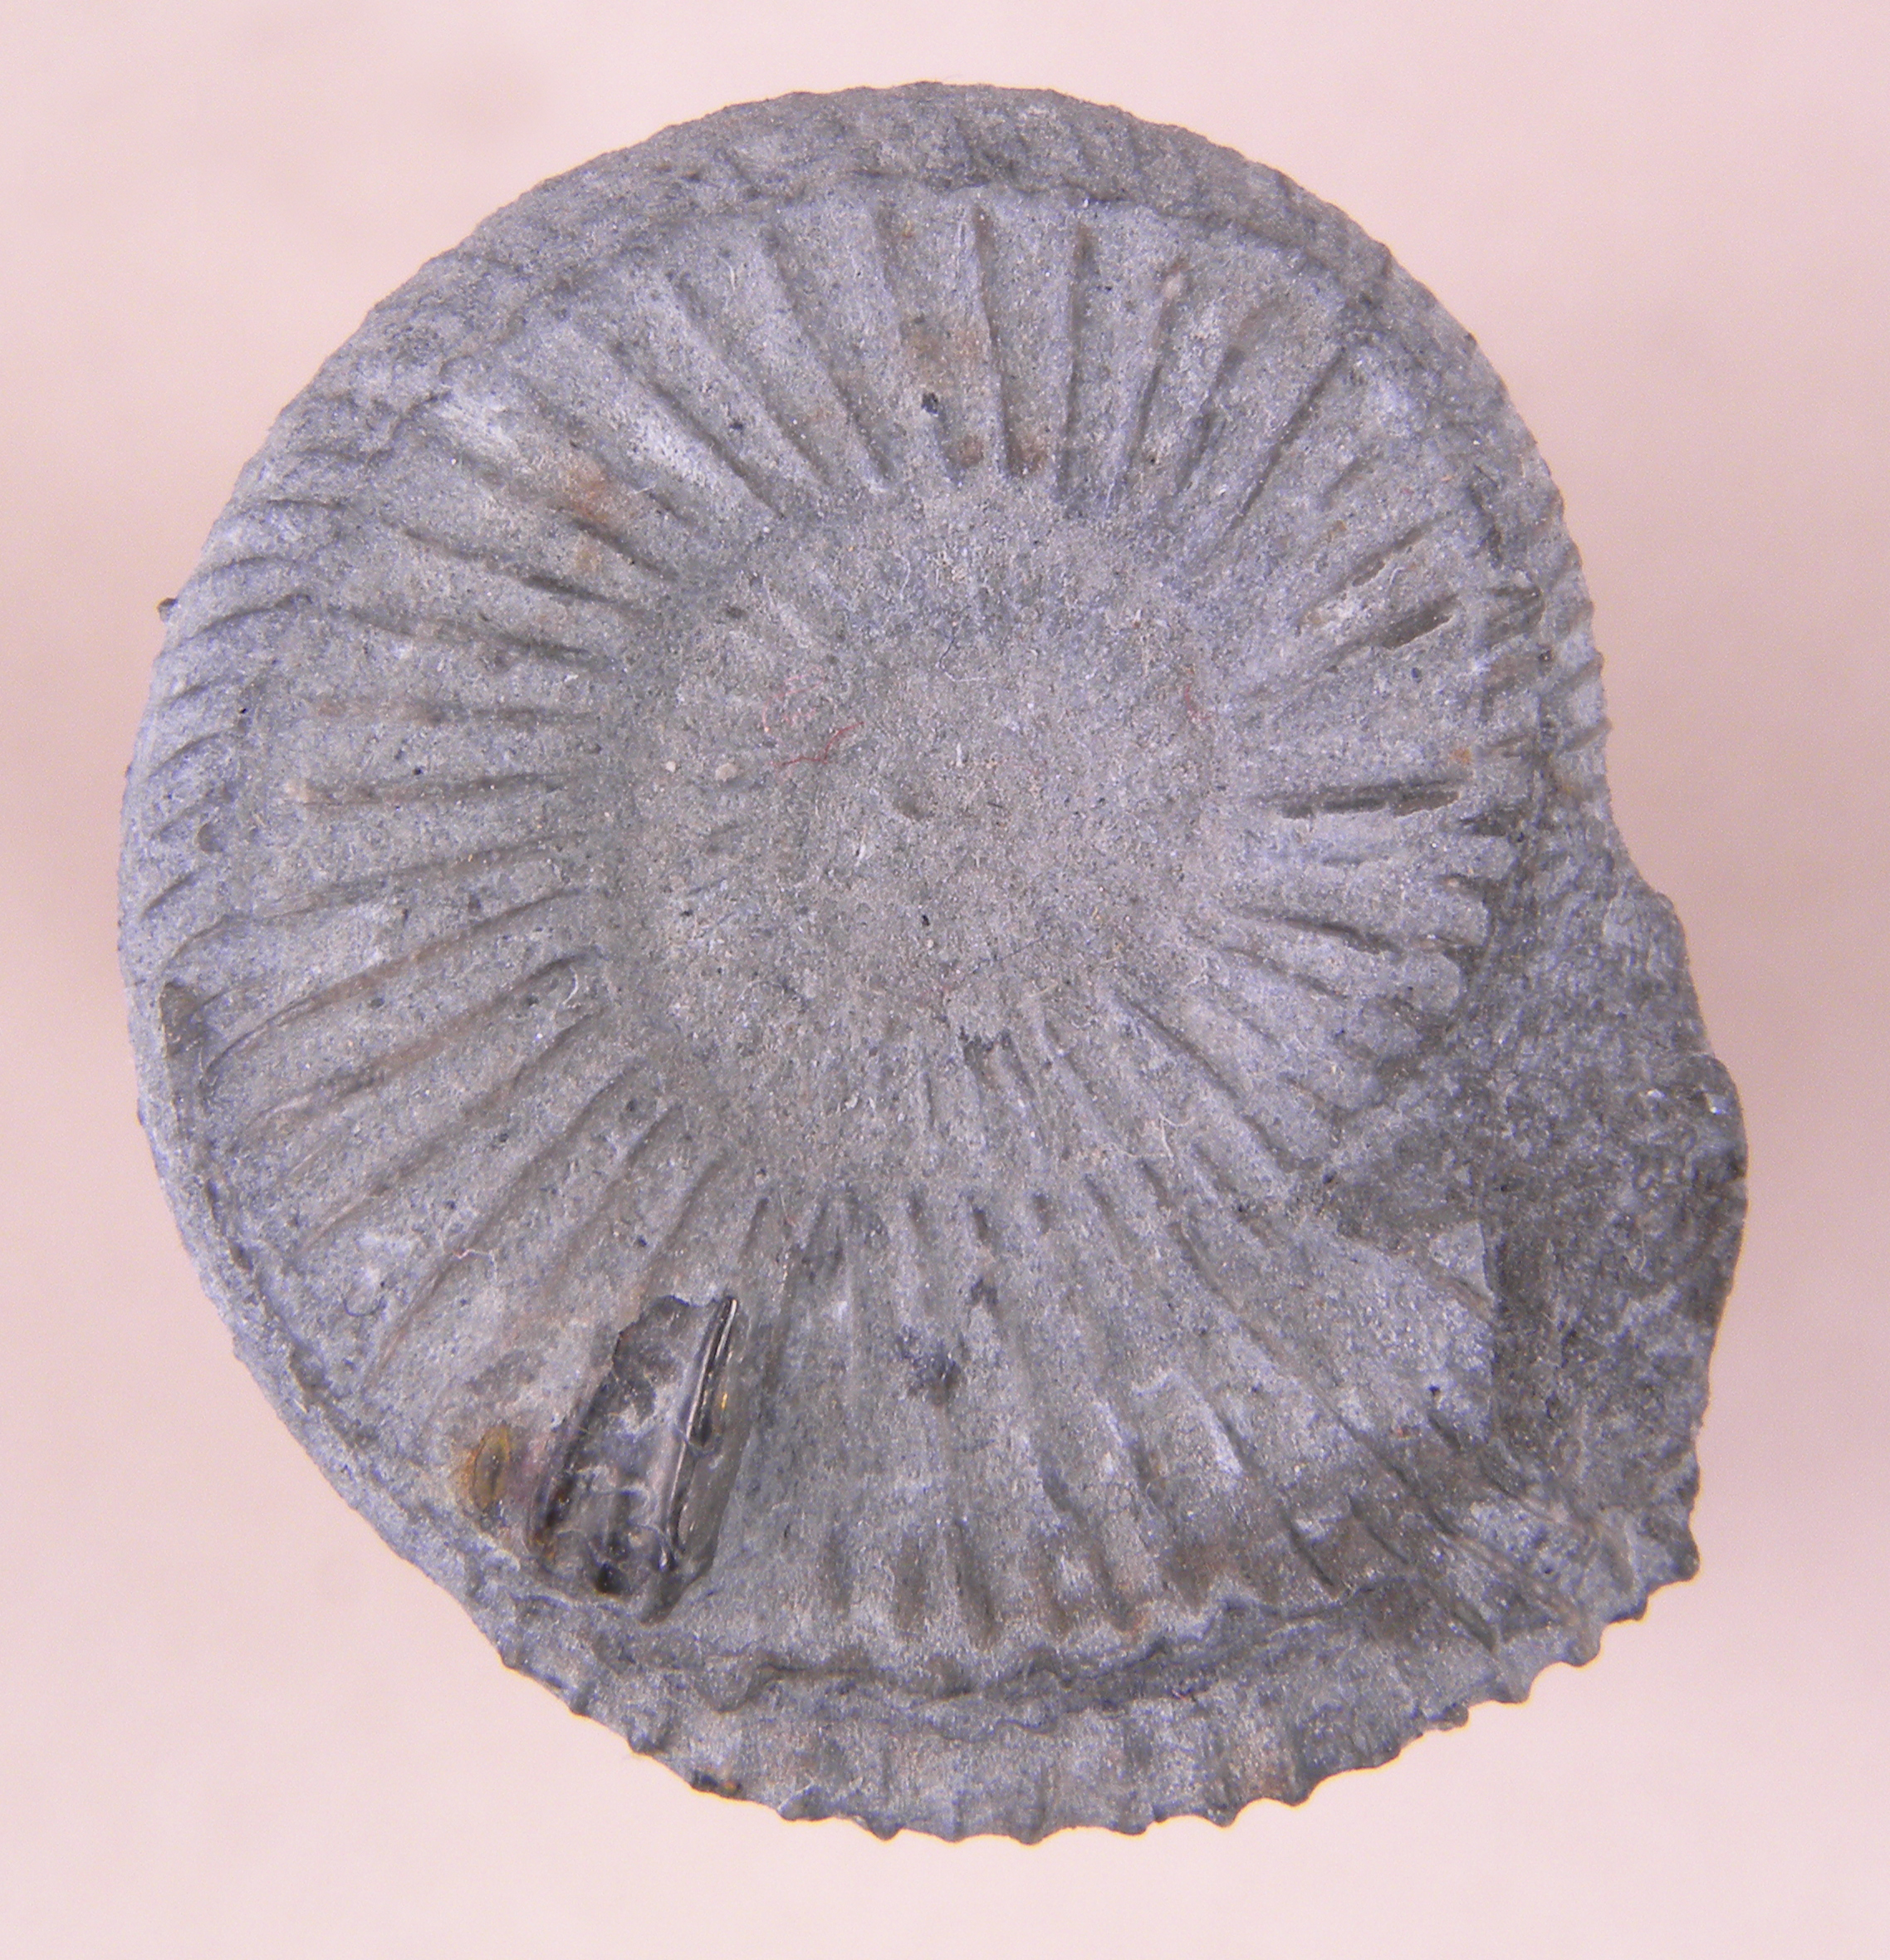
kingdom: Animalia
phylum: Mollusca
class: Cephalopoda
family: Dactylioceratidae
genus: Dactylioceras
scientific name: Dactylioceras
